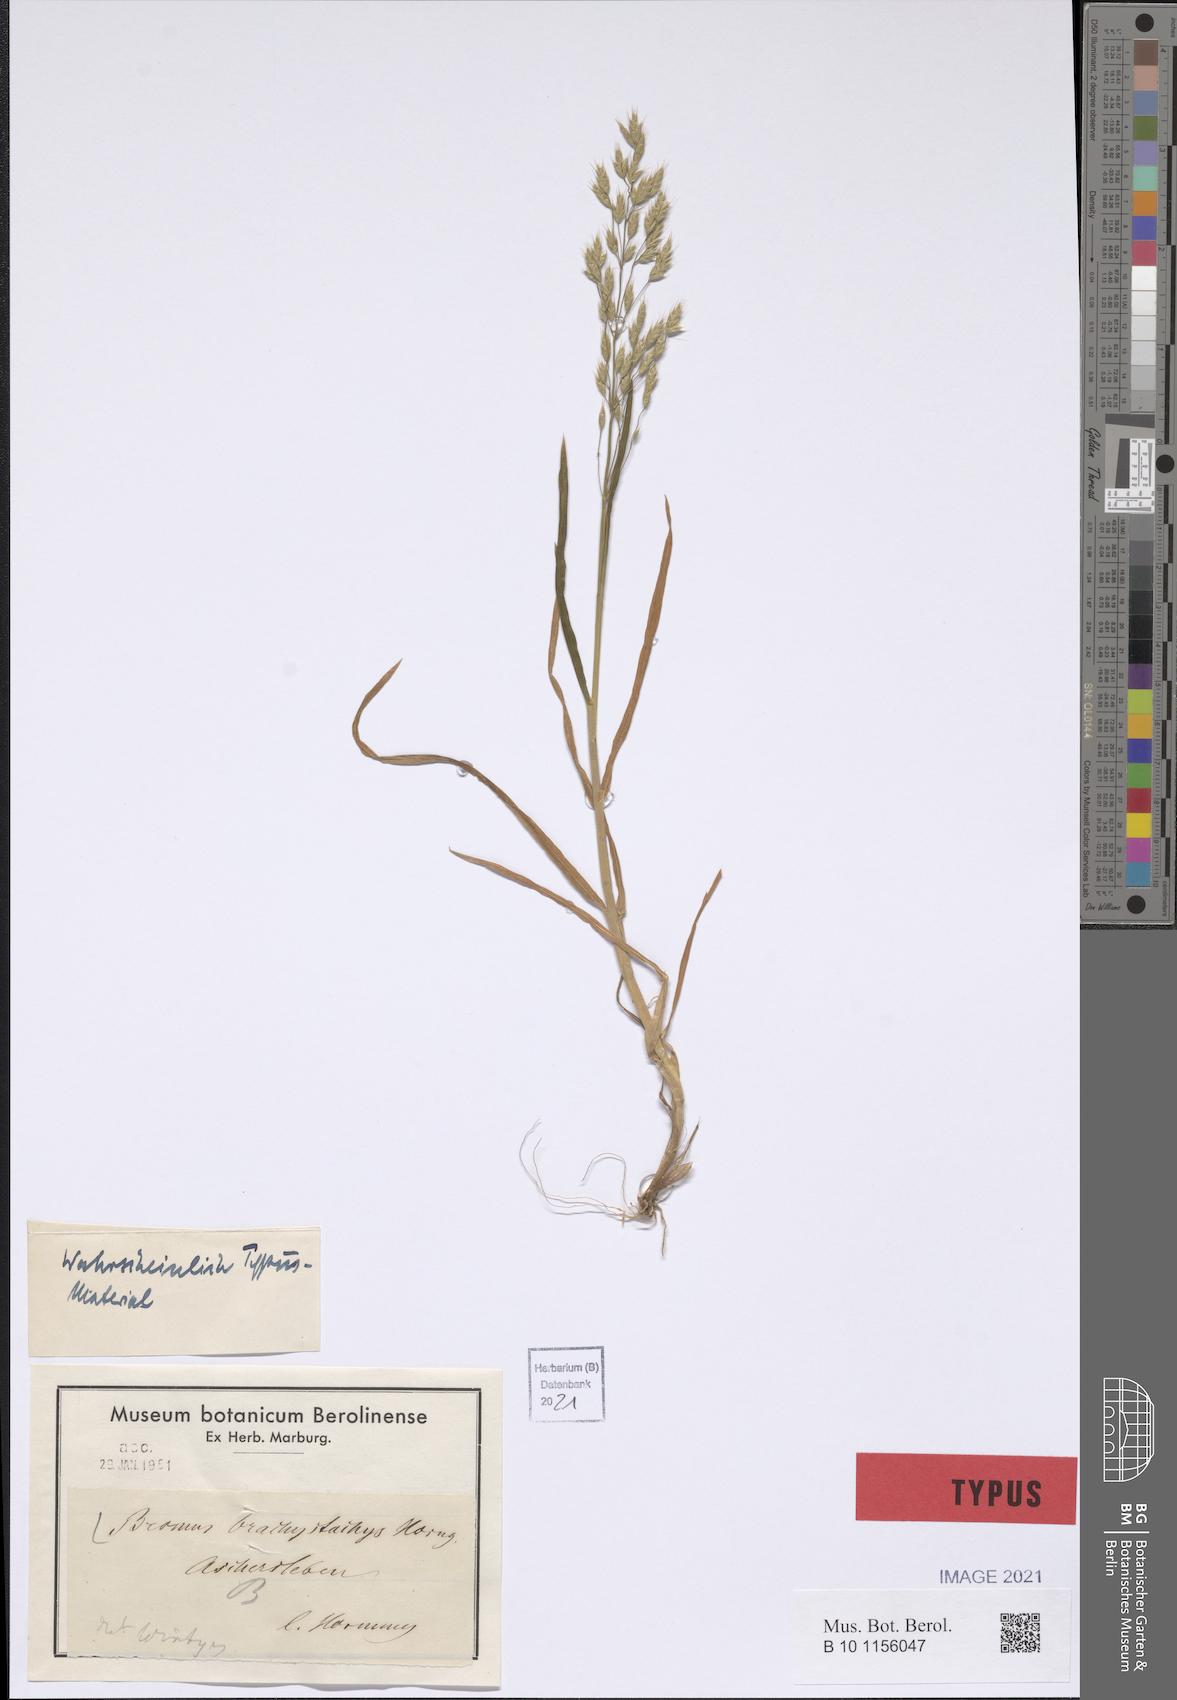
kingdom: Plantae
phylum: Tracheophyta
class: Liliopsida
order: Poales
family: Poaceae
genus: Bromus
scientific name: Bromus brachystachys
